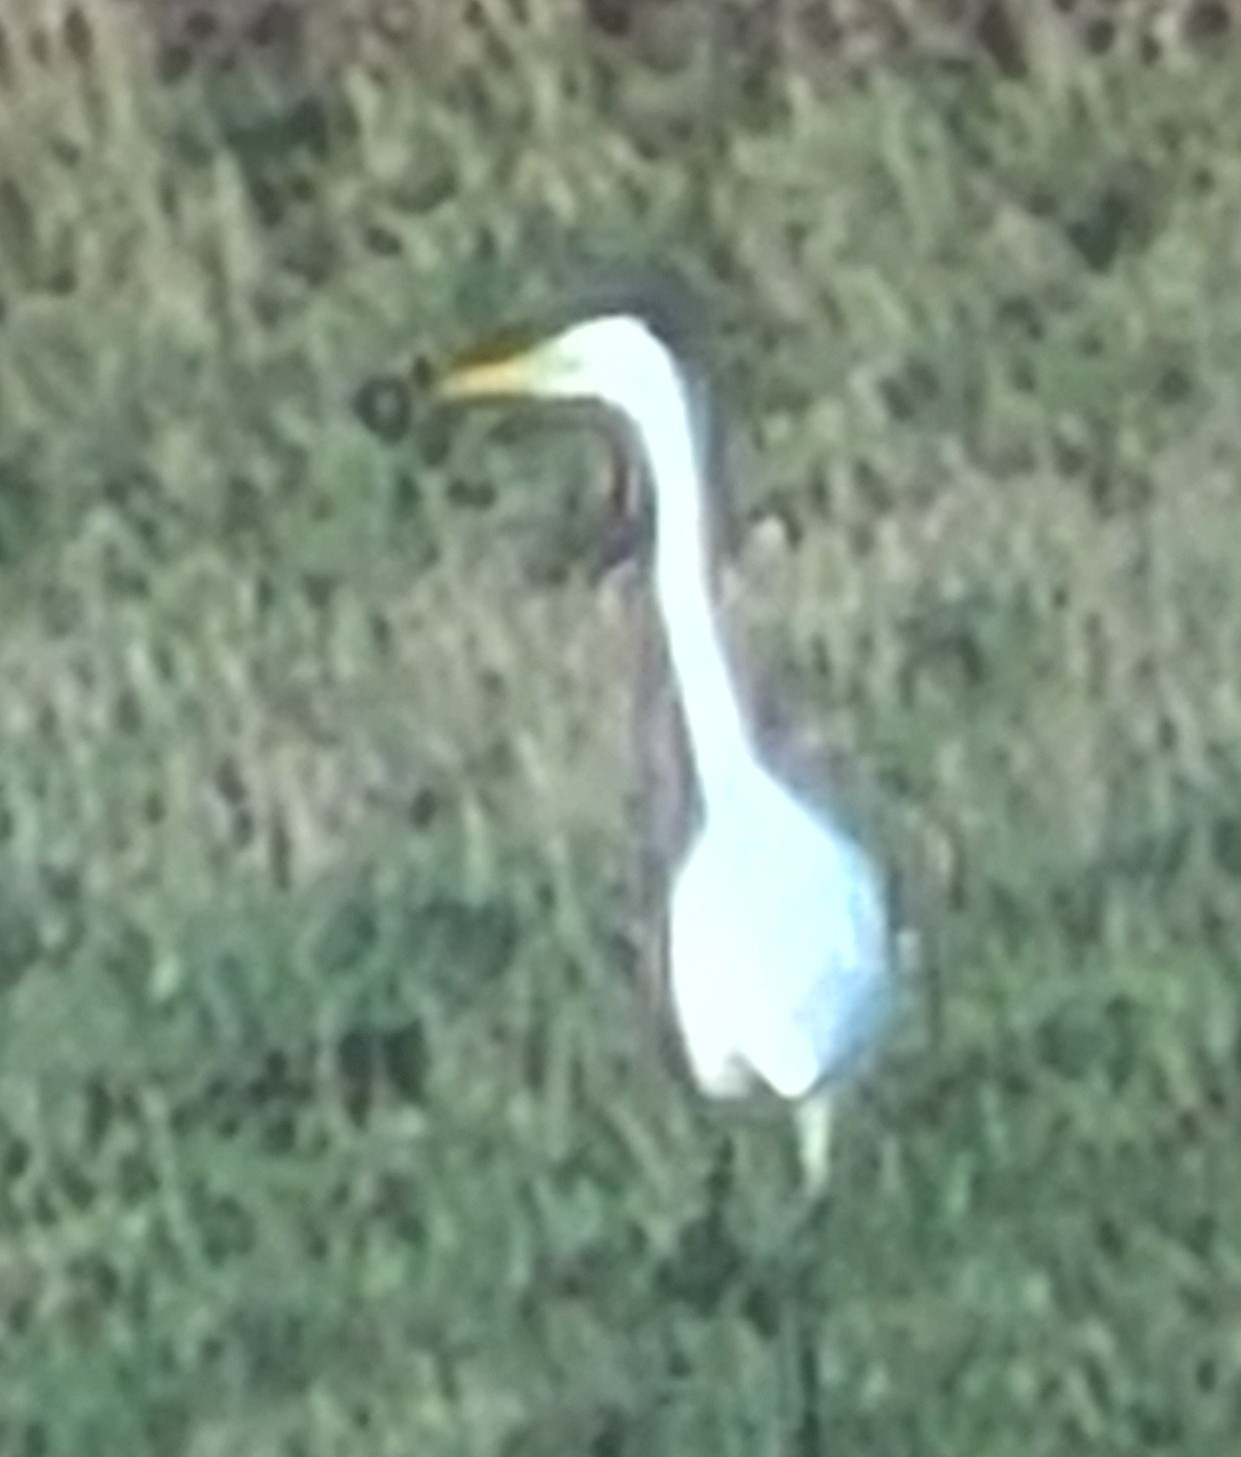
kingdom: Animalia
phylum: Chordata
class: Aves
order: Pelecaniformes
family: Ardeidae
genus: Ardea
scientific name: Ardea alba
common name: Sølvhejre
